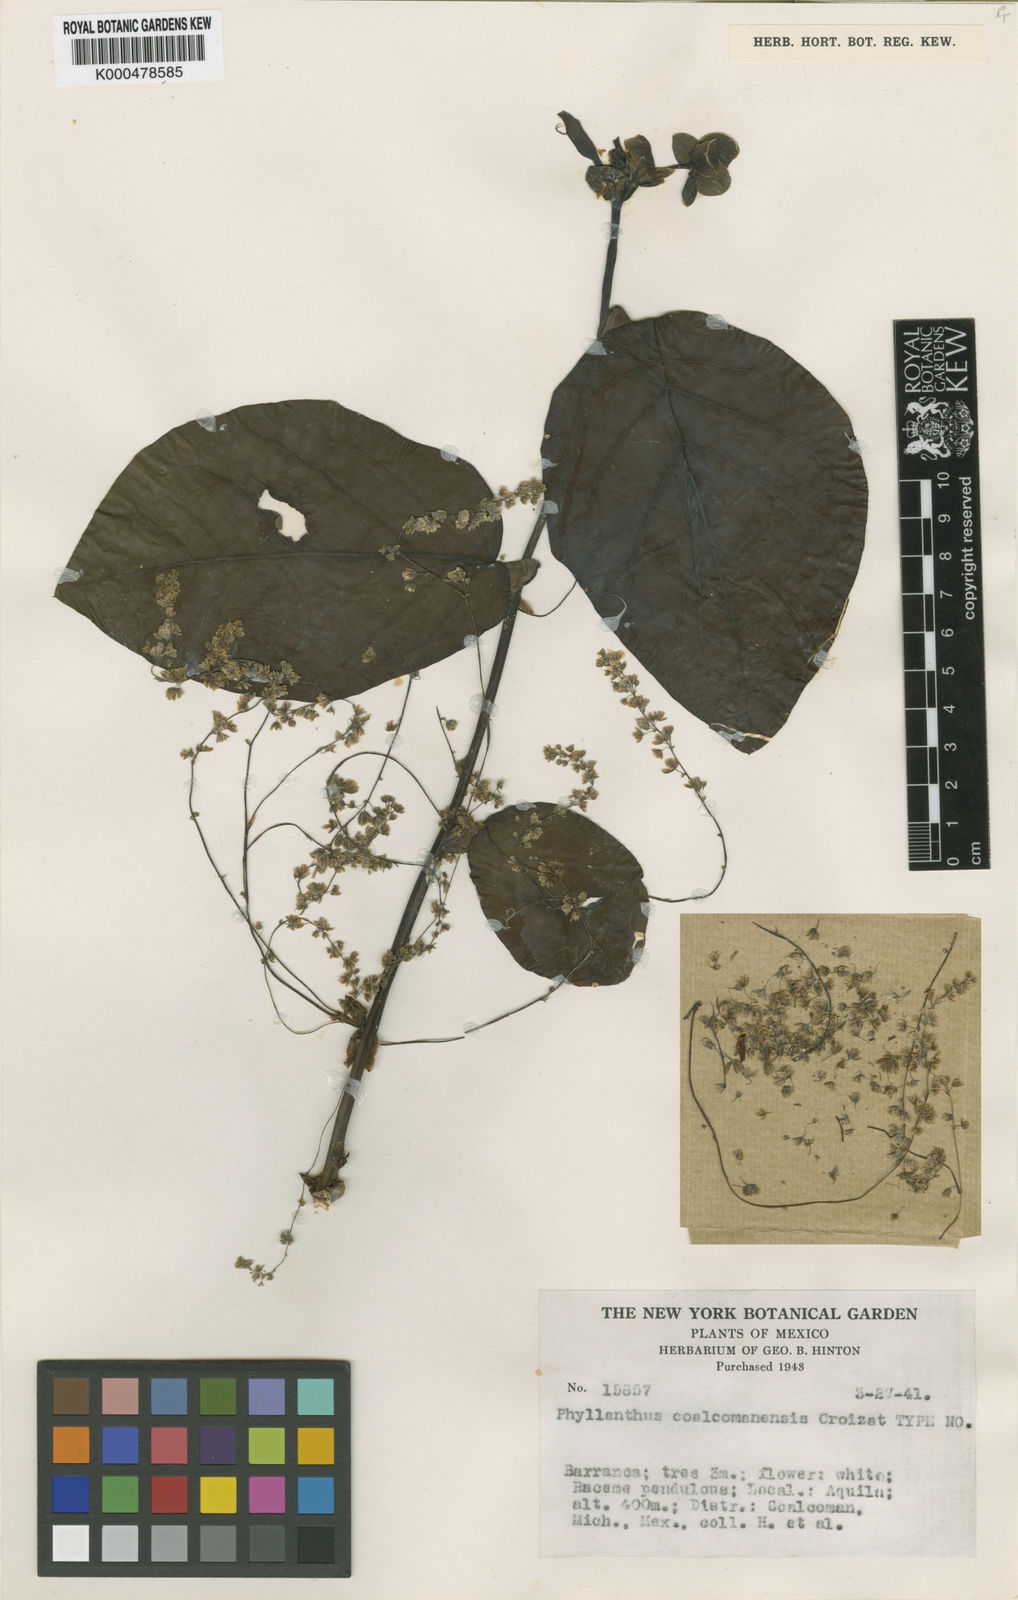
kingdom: Plantae
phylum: Tracheophyta
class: Magnoliopsida
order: Malpighiales
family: Phyllanthaceae
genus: Phyllanthus
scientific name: Phyllanthus coalcomanensis
